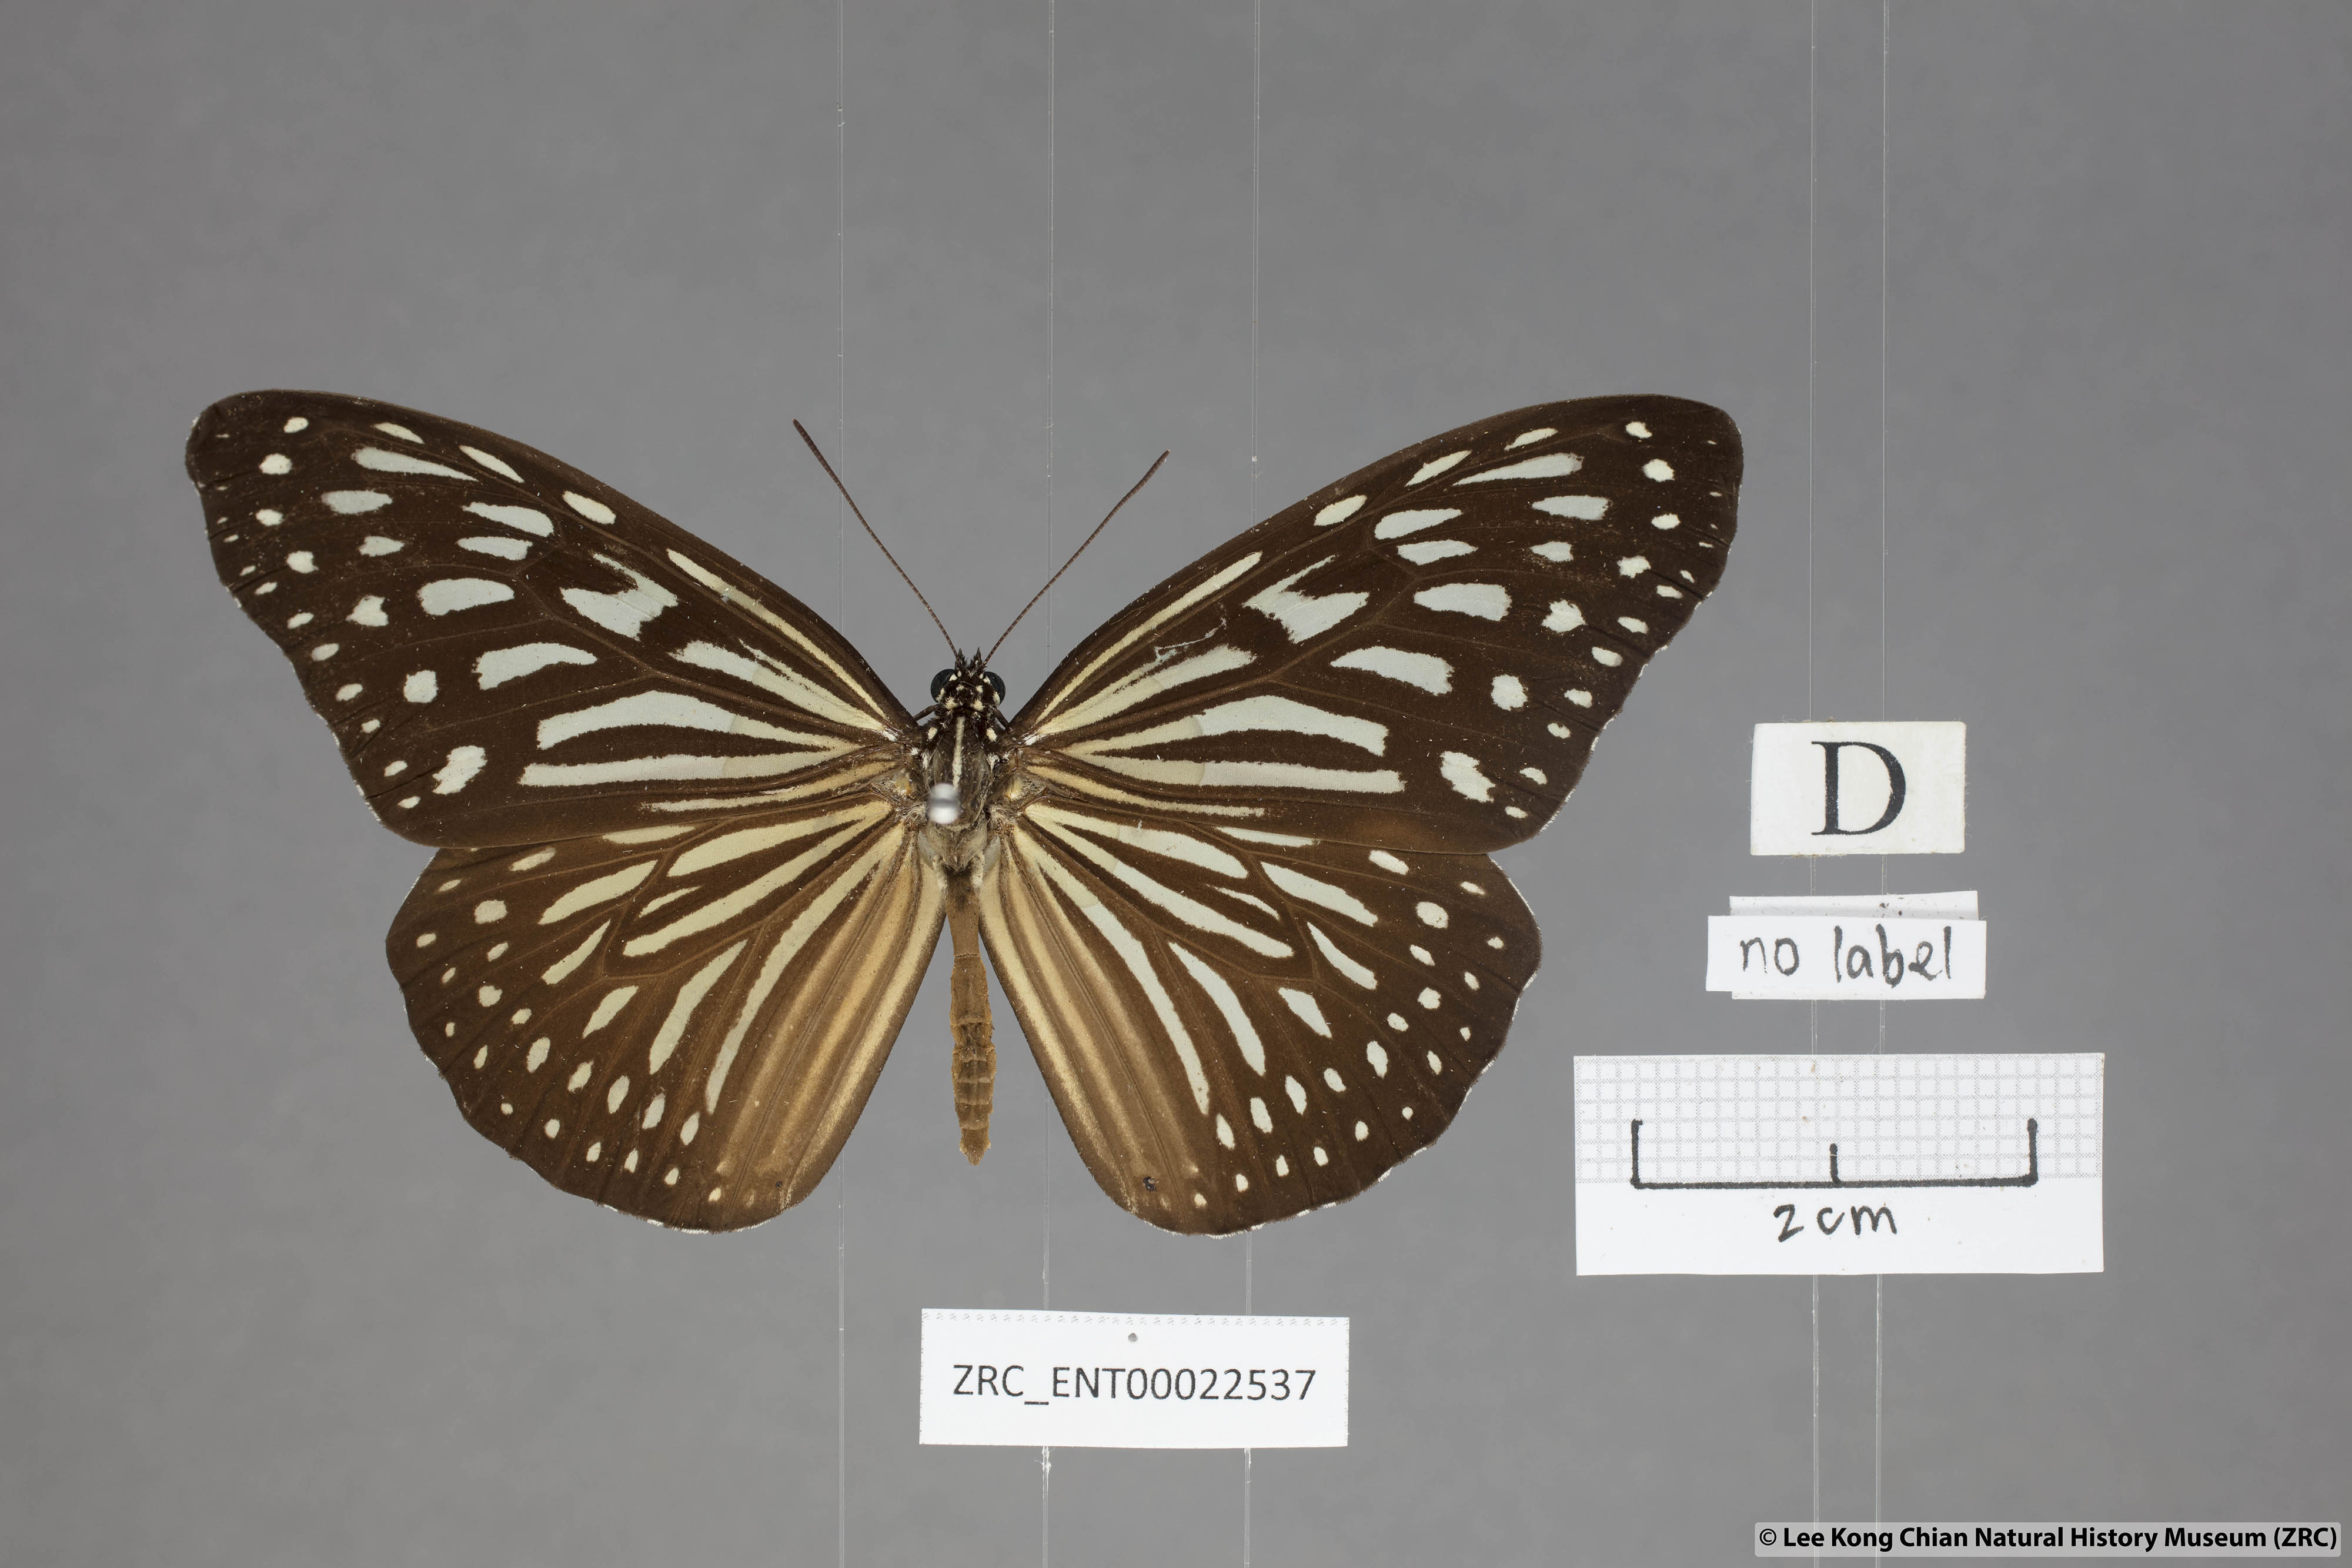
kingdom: Animalia
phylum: Arthropoda
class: Insecta
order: Lepidoptera
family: Nymphalidae
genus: Ideopsis
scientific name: Ideopsis vulgaris
